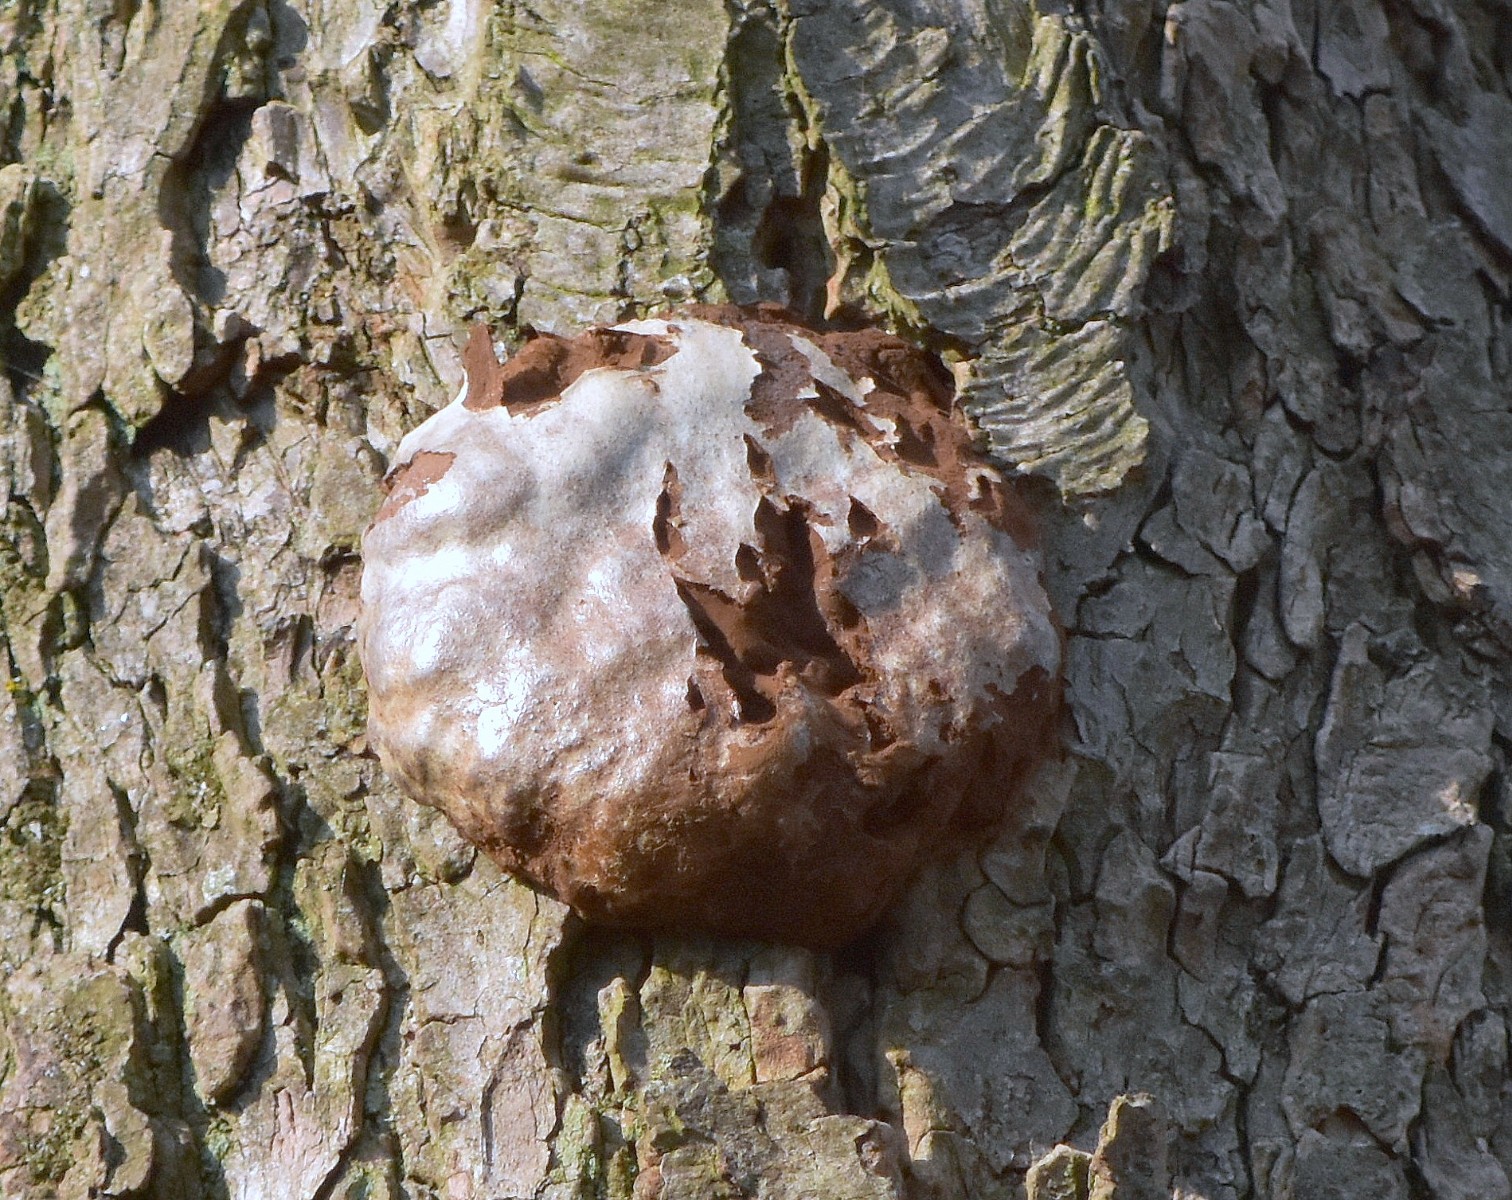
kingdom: Protozoa
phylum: Mycetozoa
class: Myxomycetes
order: Cribrariales
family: Tubiferaceae
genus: Reticularia
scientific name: Reticularia lycoperdon
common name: skinnende støvpude
